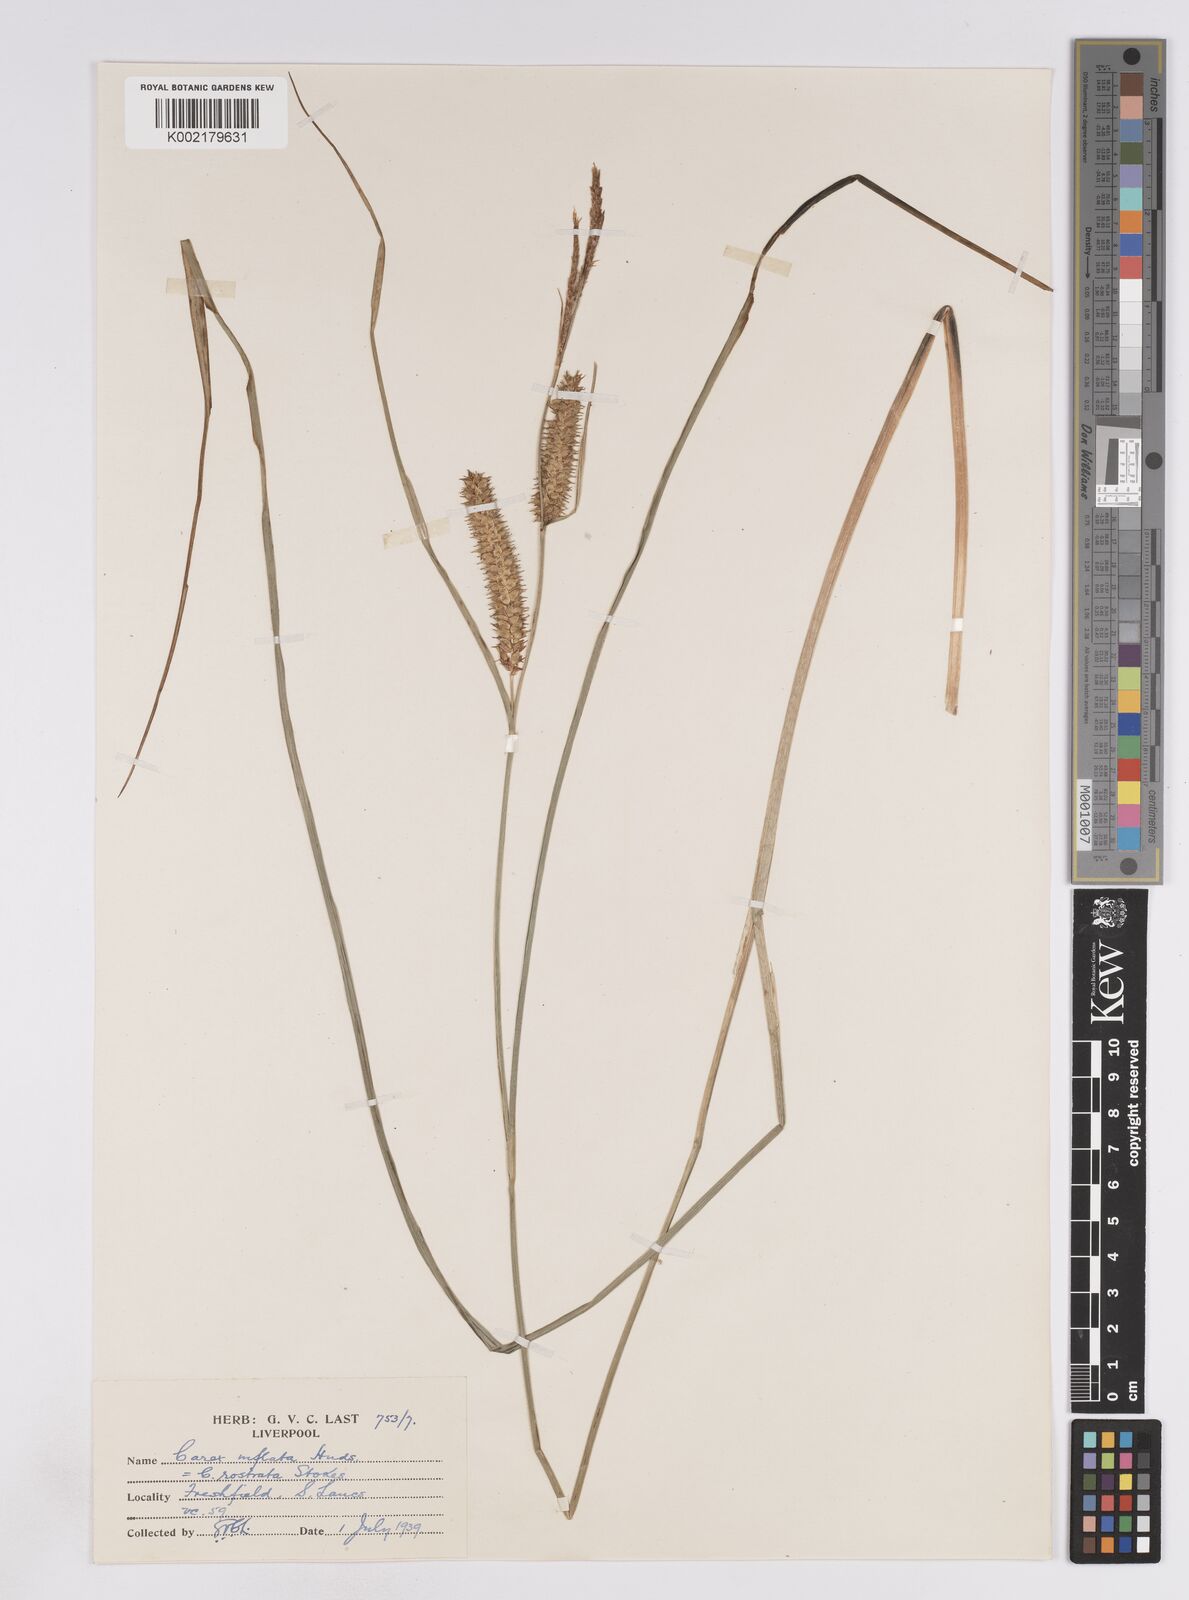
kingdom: Plantae
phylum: Tracheophyta
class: Liliopsida
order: Poales
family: Cyperaceae
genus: Carex
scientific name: Carex rostrata
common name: Bottle sedge
